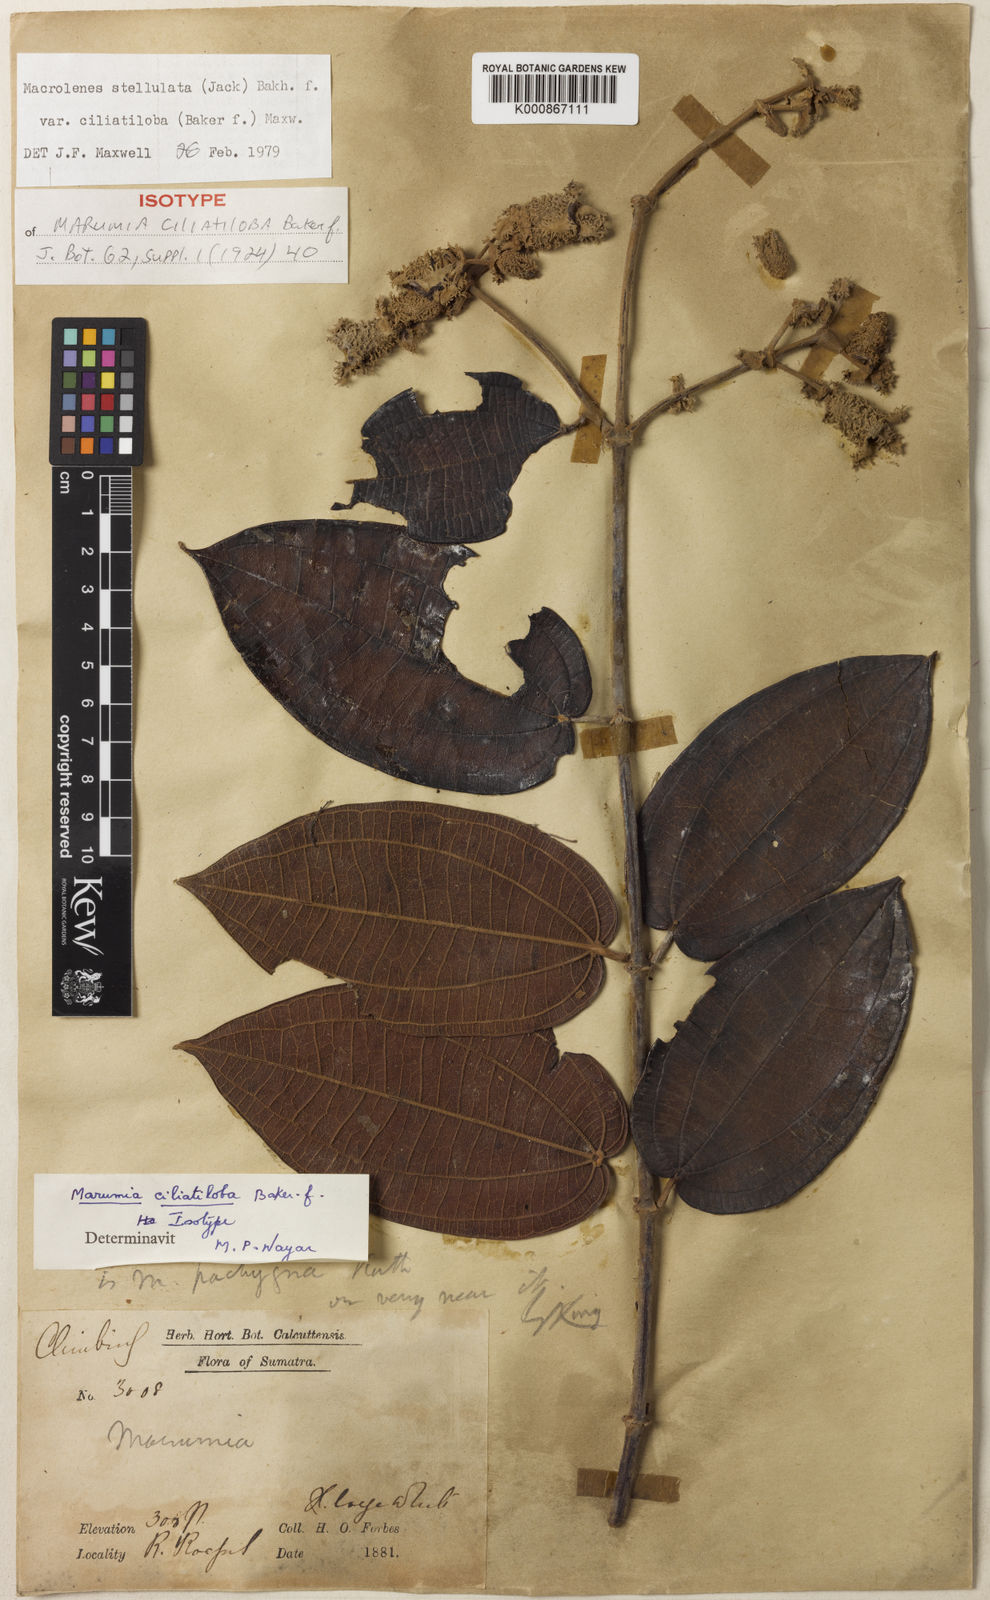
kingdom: Plantae
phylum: Tracheophyta
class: Magnoliopsida
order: Myrtales
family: Melastomataceae
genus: Macrolenes
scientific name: Macrolenes stellulata
